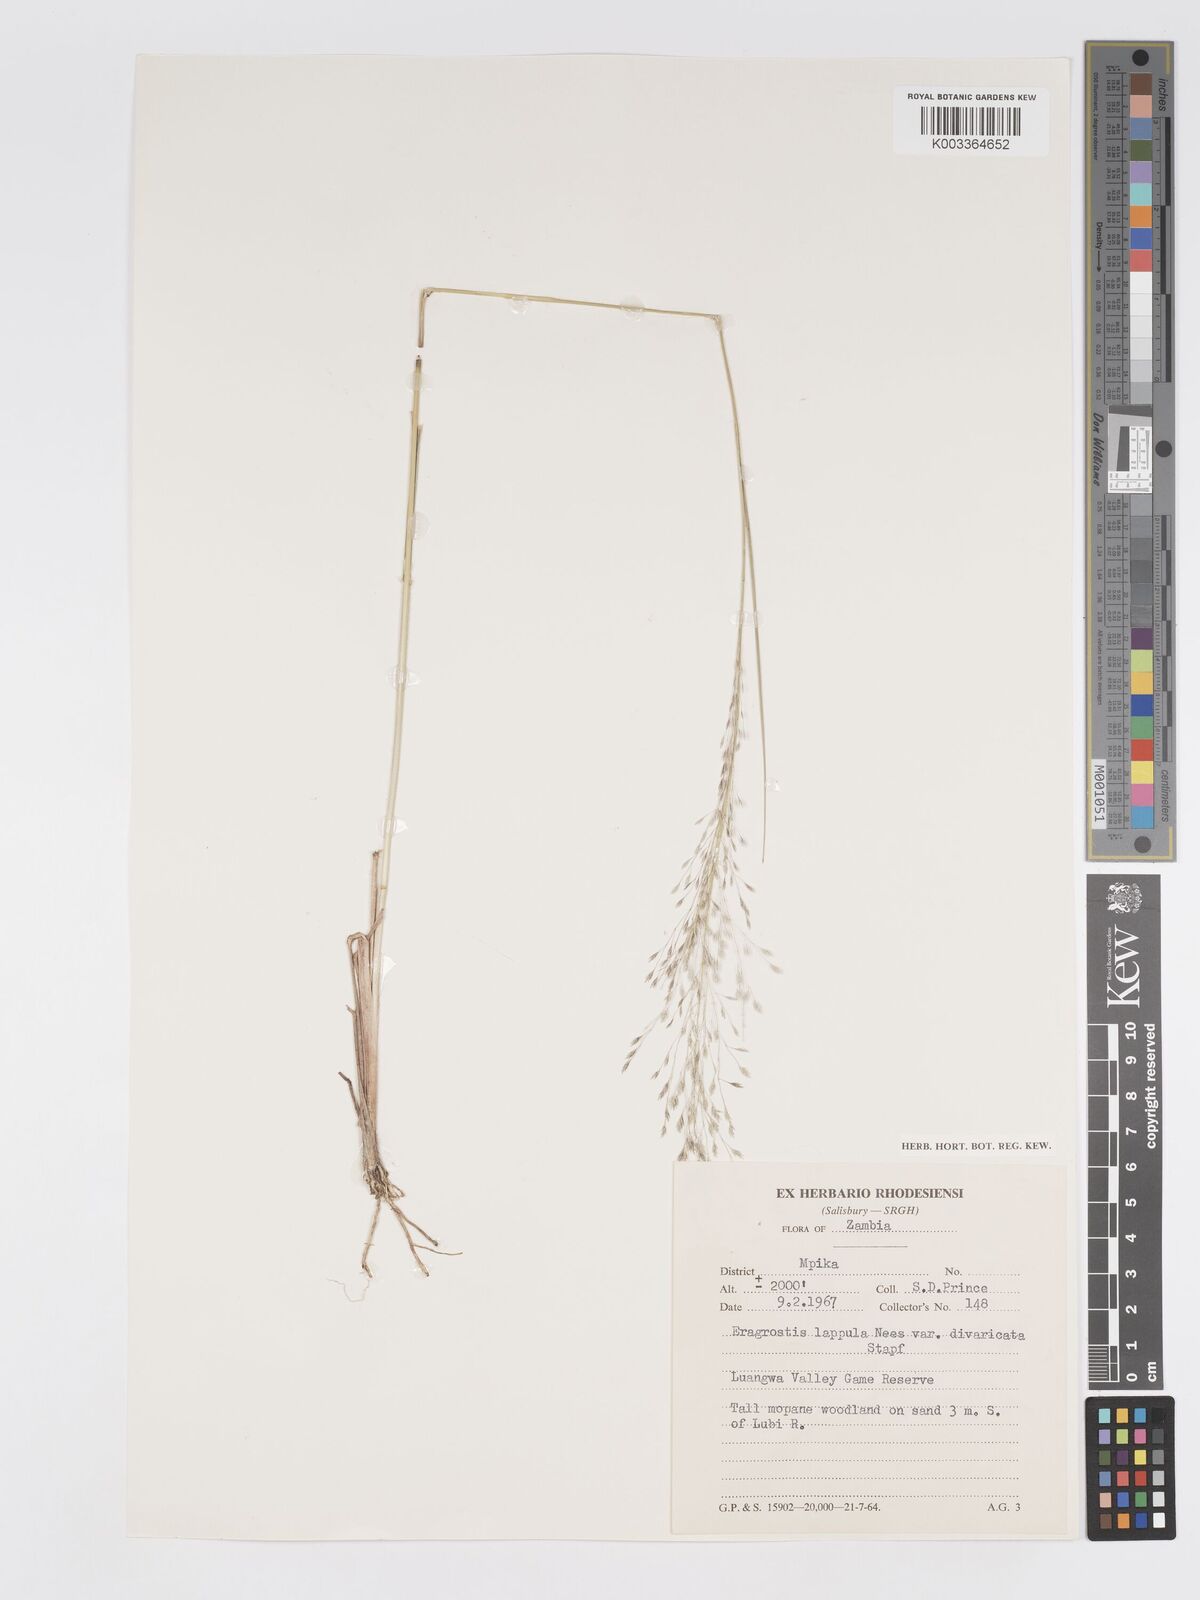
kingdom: Plantae
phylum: Tracheophyta
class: Liliopsida
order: Poales
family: Poaceae
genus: Eragrostis
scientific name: Eragrostis lappula
